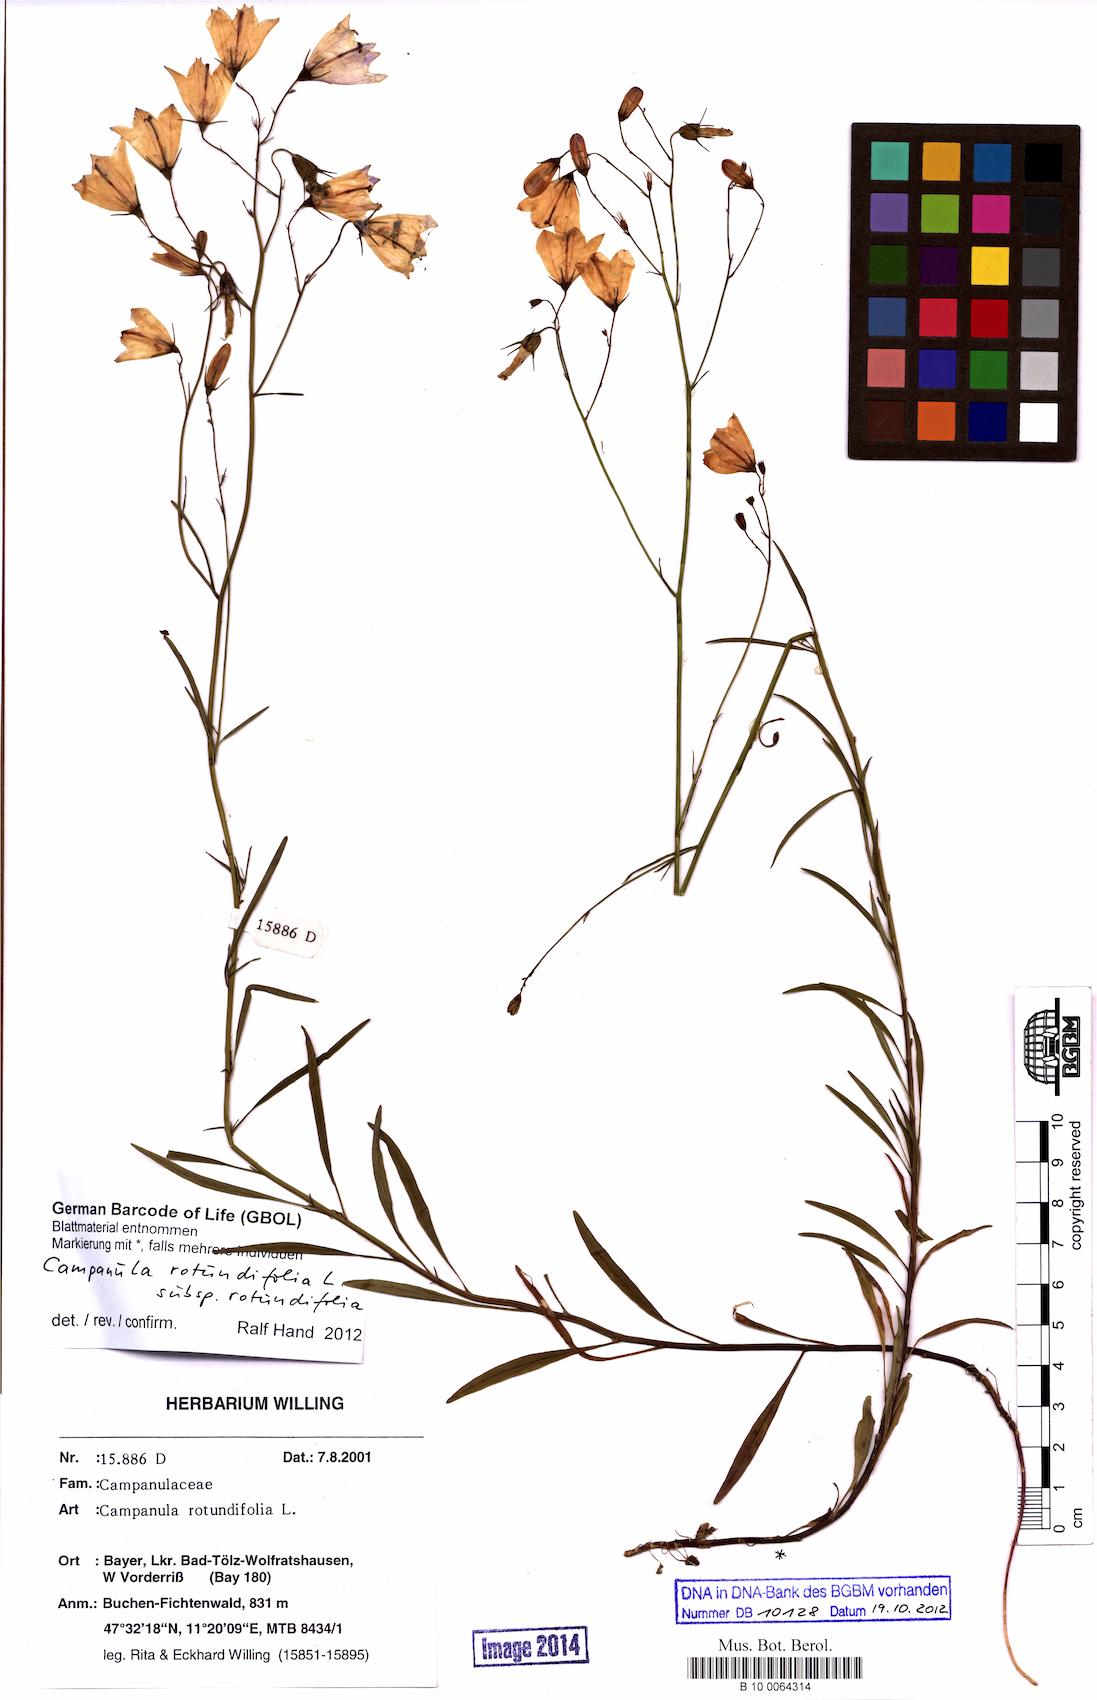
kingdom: Plantae
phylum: Tracheophyta
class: Magnoliopsida
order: Asterales
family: Campanulaceae
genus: Campanula
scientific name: Campanula rotundifolia
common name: Harebell
